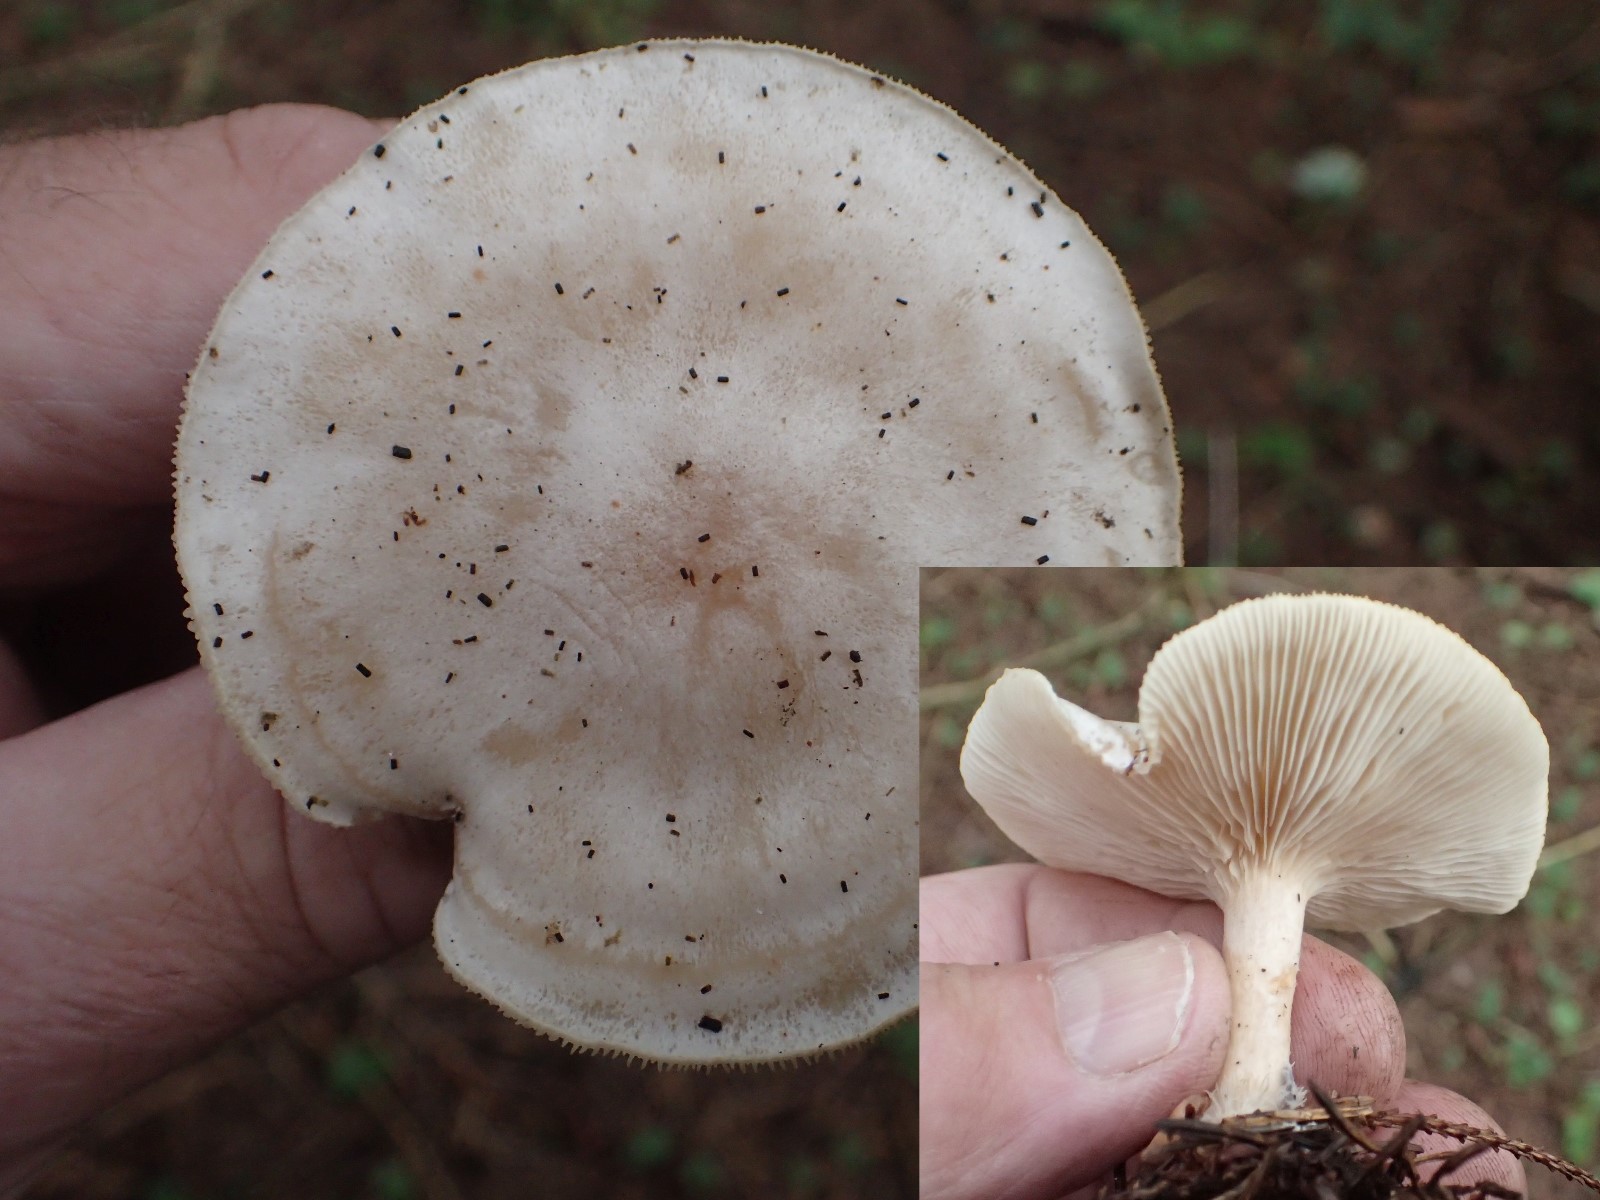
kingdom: Fungi
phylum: Basidiomycota
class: Agaricomycetes
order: Agaricales
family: Tricholomataceae
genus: Clitocybe
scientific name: Clitocybe
